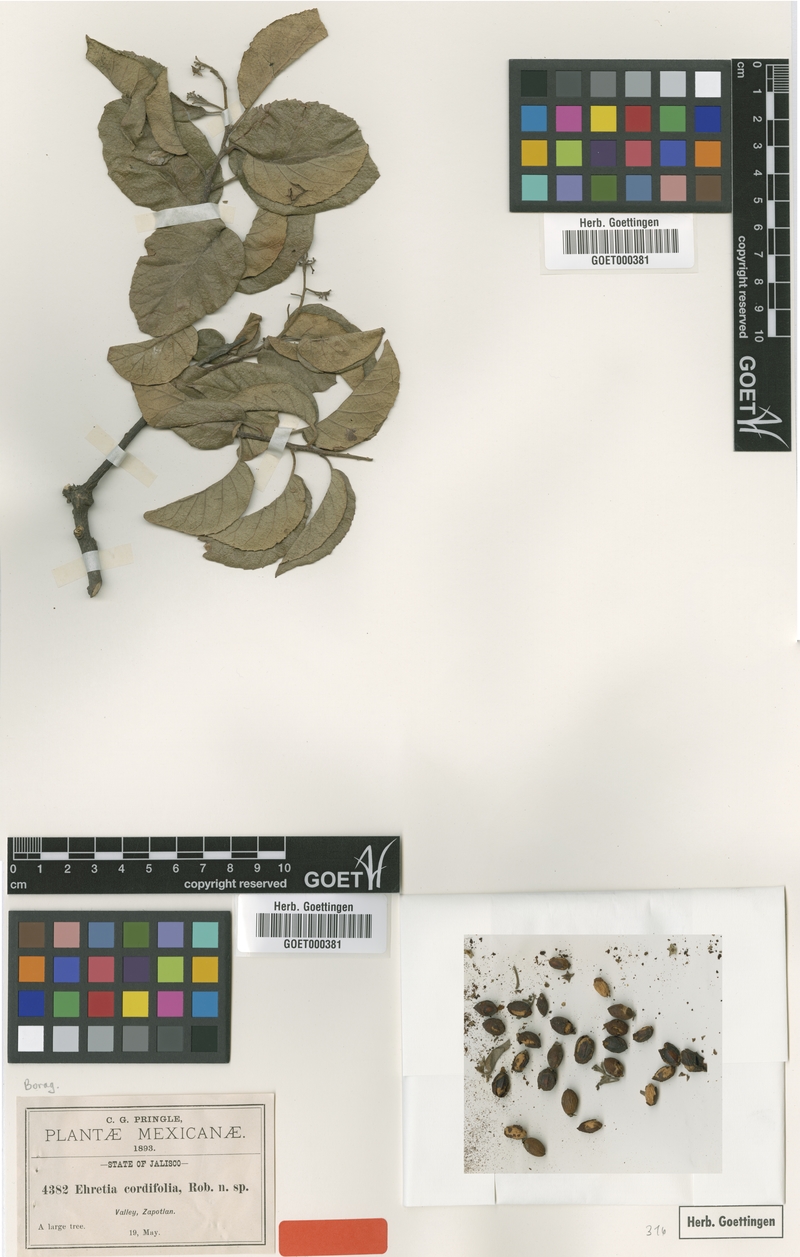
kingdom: Plantae
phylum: Tracheophyta
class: Magnoliopsida
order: Boraginales
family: Ehretiaceae
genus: Ehretia
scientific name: Ehretia latifolia
